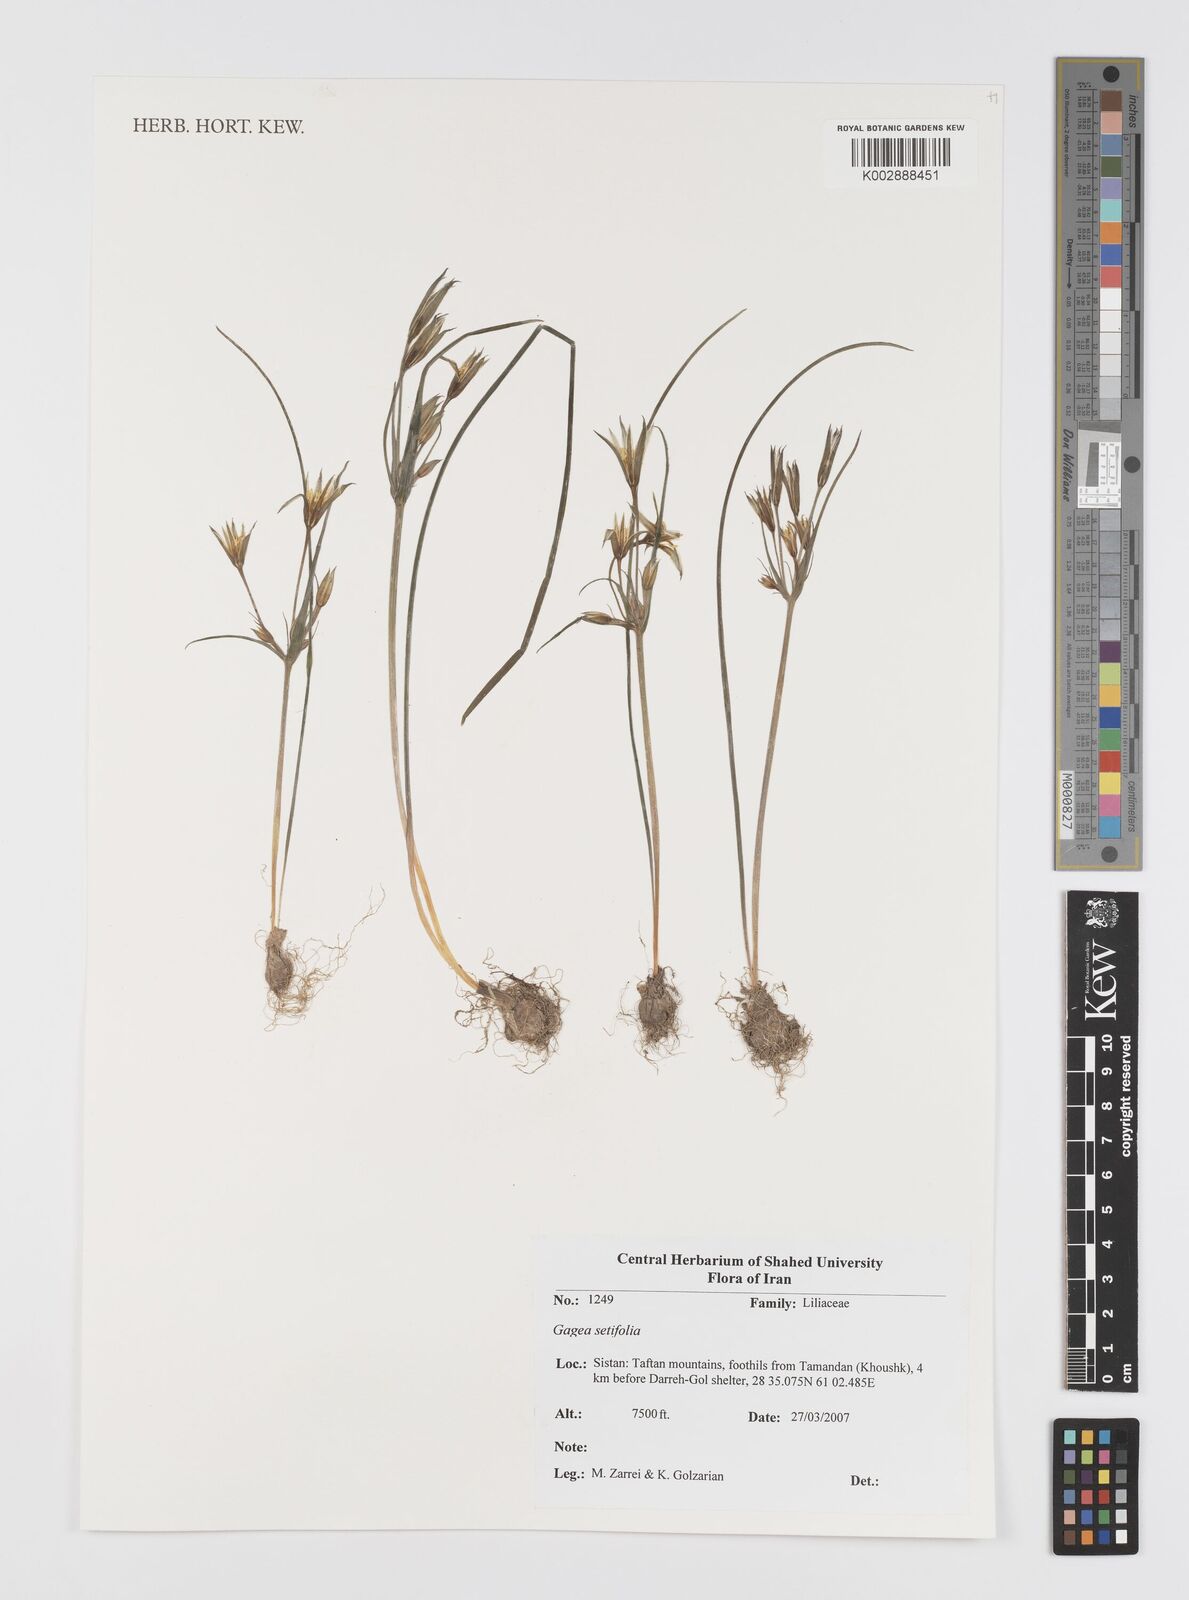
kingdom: Plantae
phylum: Tracheophyta
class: Liliopsida
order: Liliales
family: Liliaceae
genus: Gagea
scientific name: Gagea setifolia
